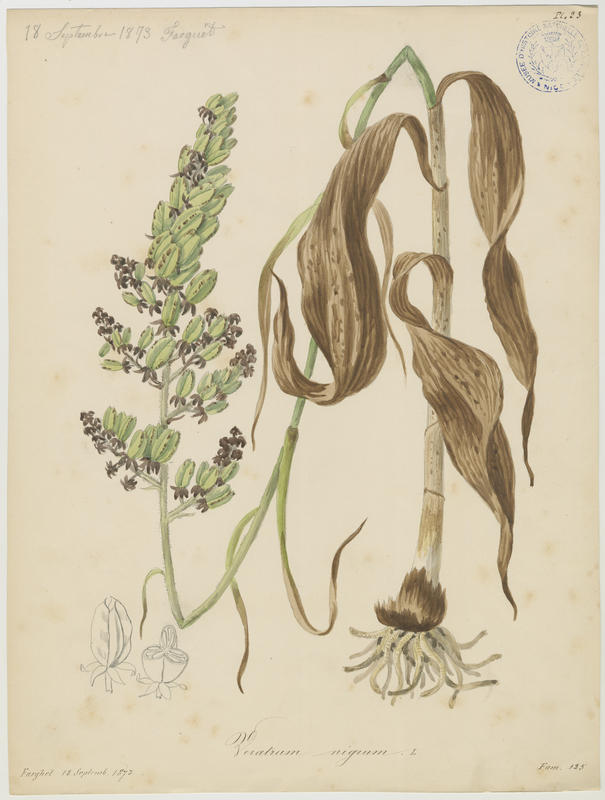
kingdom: Plantae
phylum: Tracheophyta
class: Liliopsida
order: Liliales
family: Melanthiaceae
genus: Veratrum
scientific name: Veratrum nigrum
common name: Black veratrum
